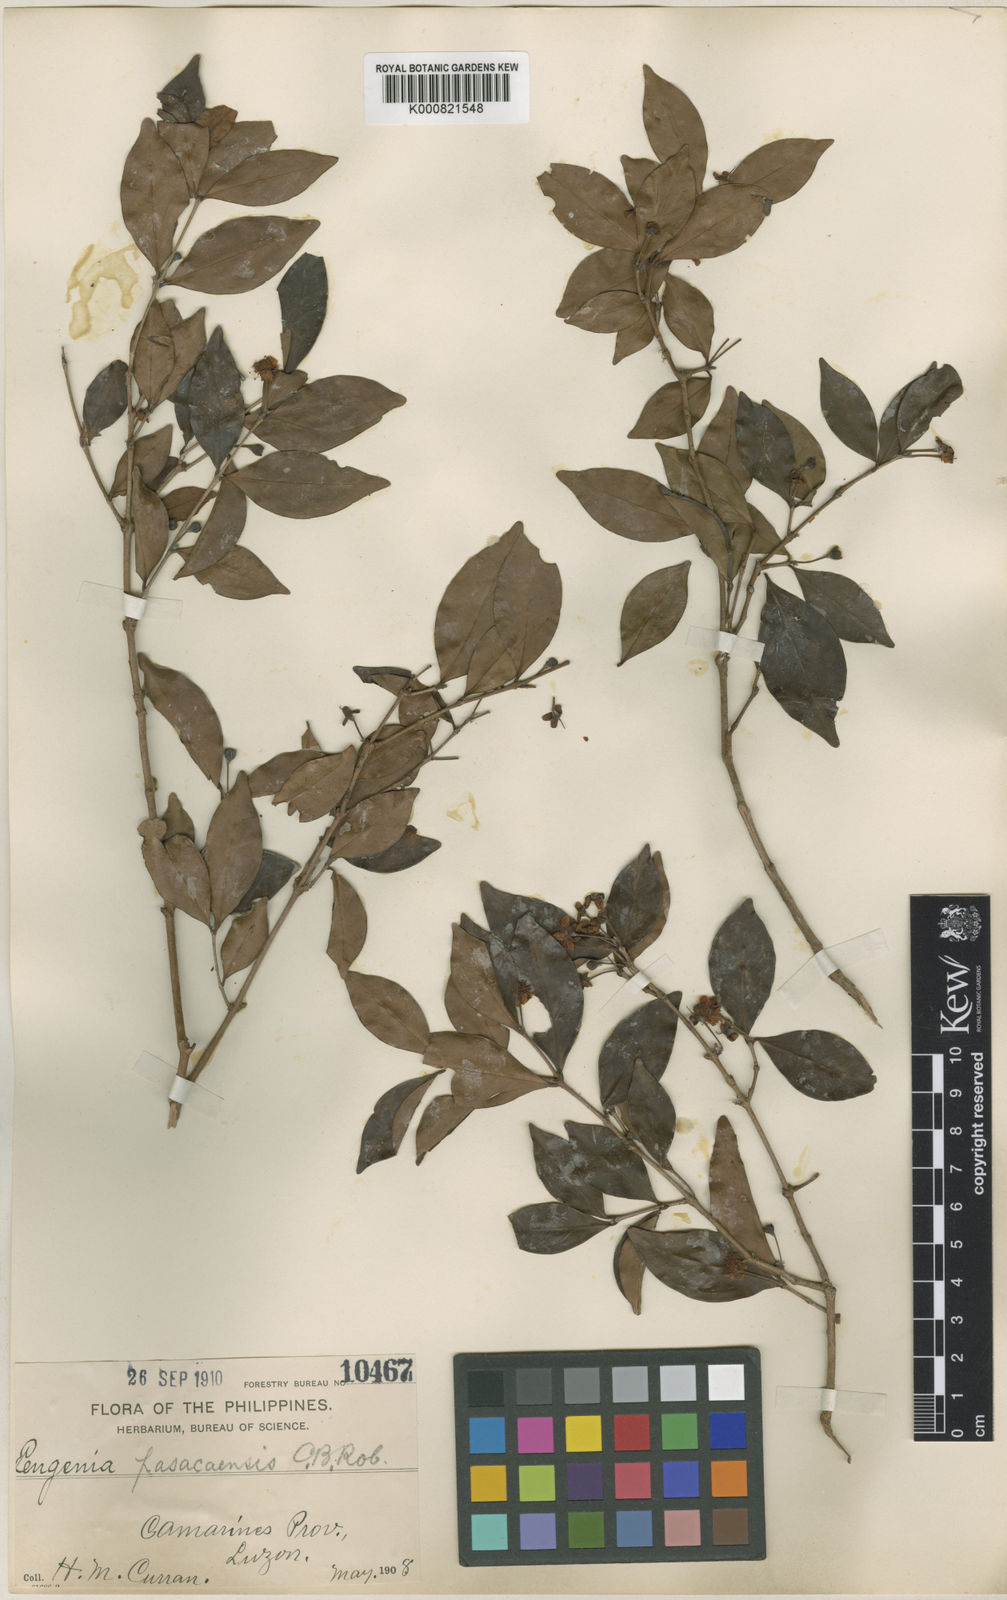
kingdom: Plantae
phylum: Tracheophyta
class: Magnoliopsida
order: Myrtales
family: Myrtaceae
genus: Eugenia
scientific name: Eugenia pasacaensis
